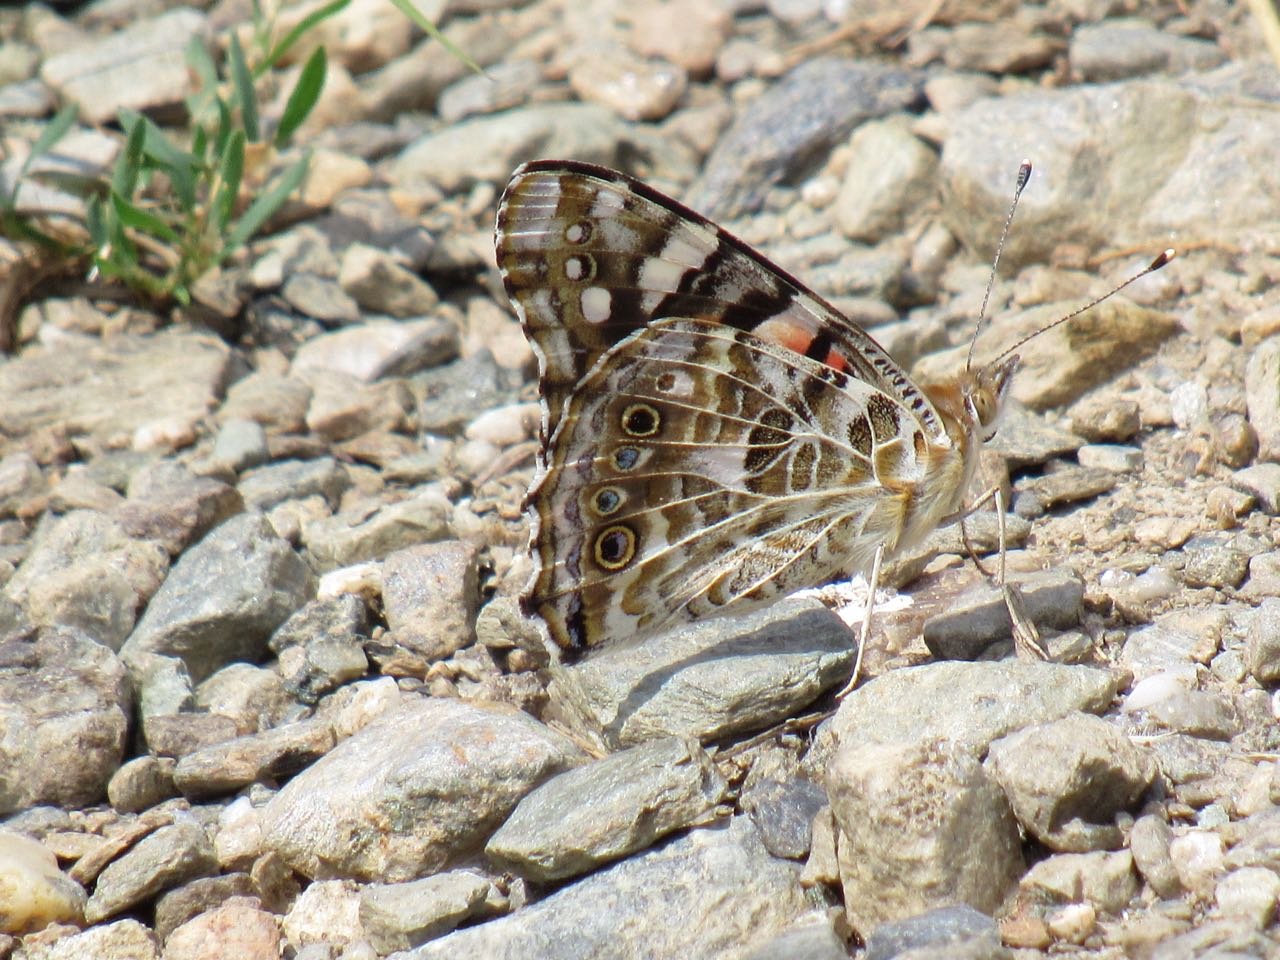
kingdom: Animalia
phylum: Arthropoda
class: Insecta
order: Lepidoptera
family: Nymphalidae
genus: Vanessa
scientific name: Vanessa cardui
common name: Painted Lady
